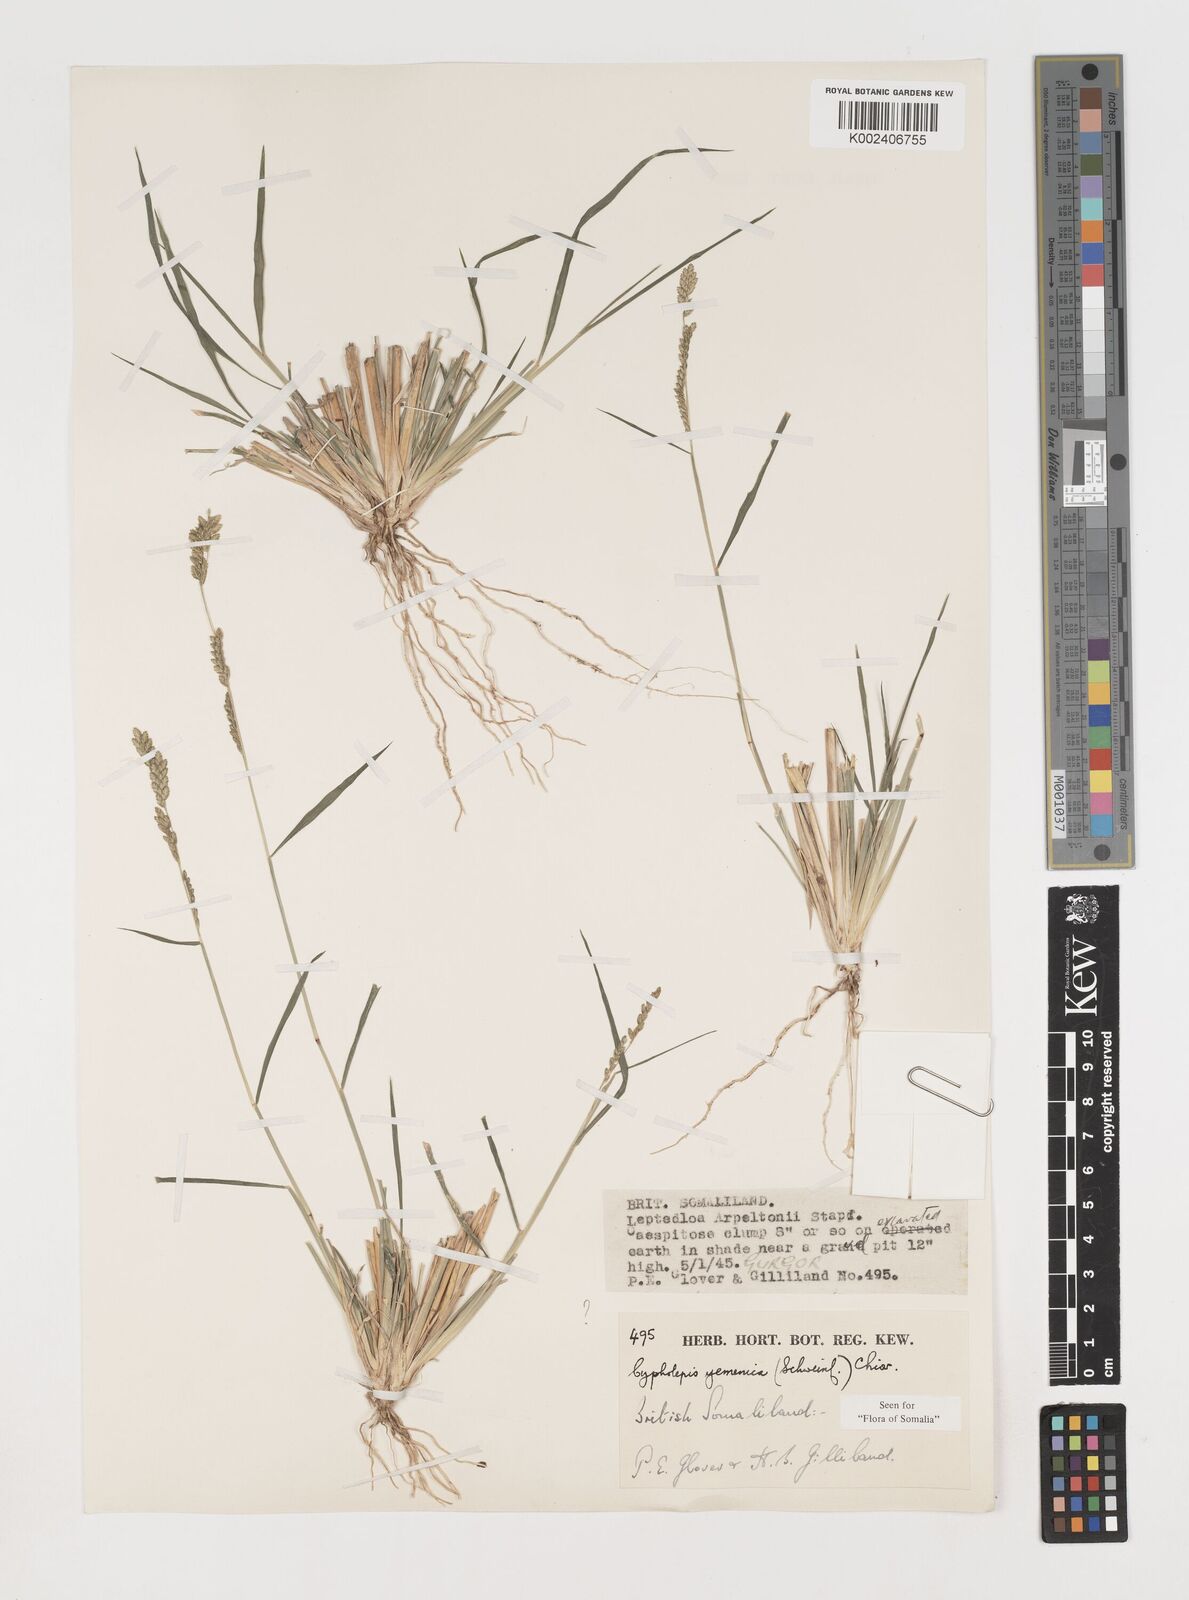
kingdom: Plantae
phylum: Tracheophyta
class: Liliopsida
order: Poales
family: Poaceae
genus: Disakisperma
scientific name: Disakisperma yemenicum
